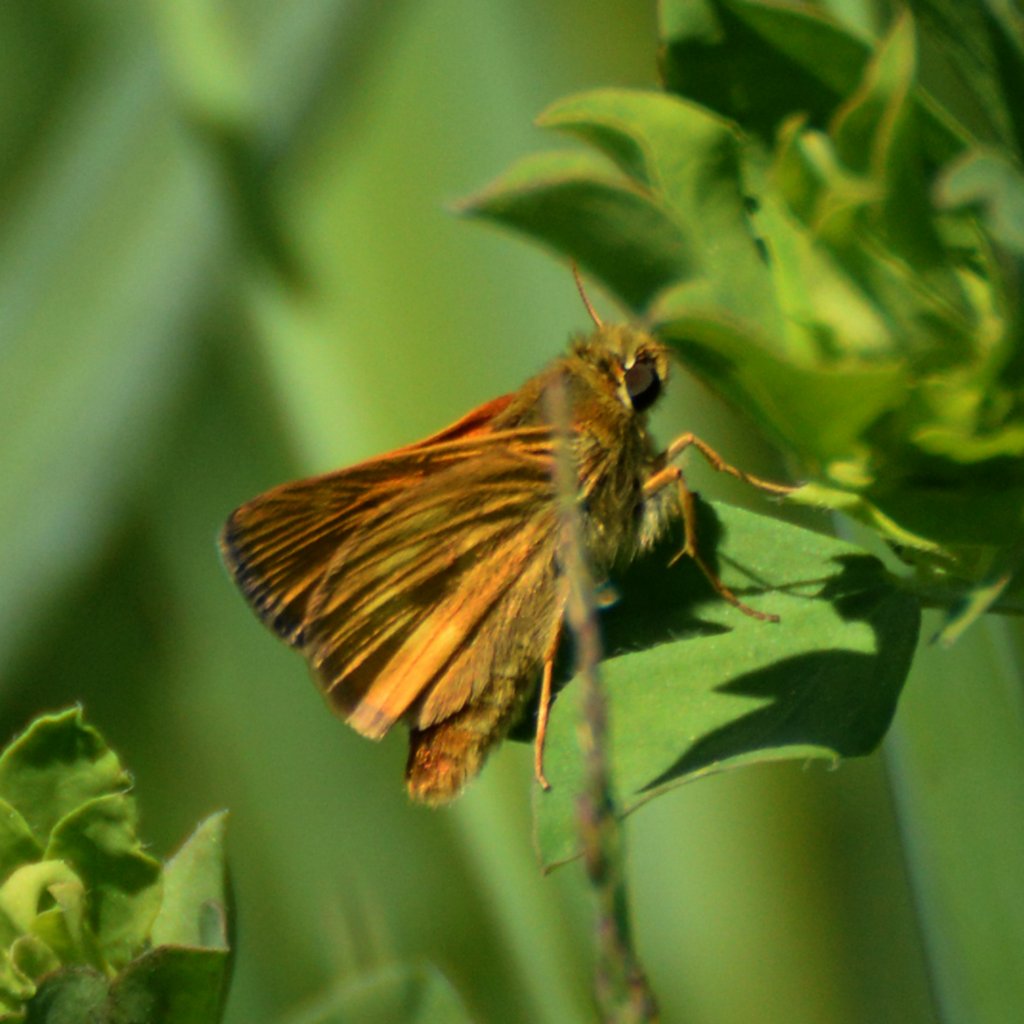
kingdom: Animalia
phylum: Arthropoda
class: Insecta
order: Lepidoptera
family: Hesperiidae
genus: Hesperia
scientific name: Hesperia sassacus
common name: Sassacus Skipper
